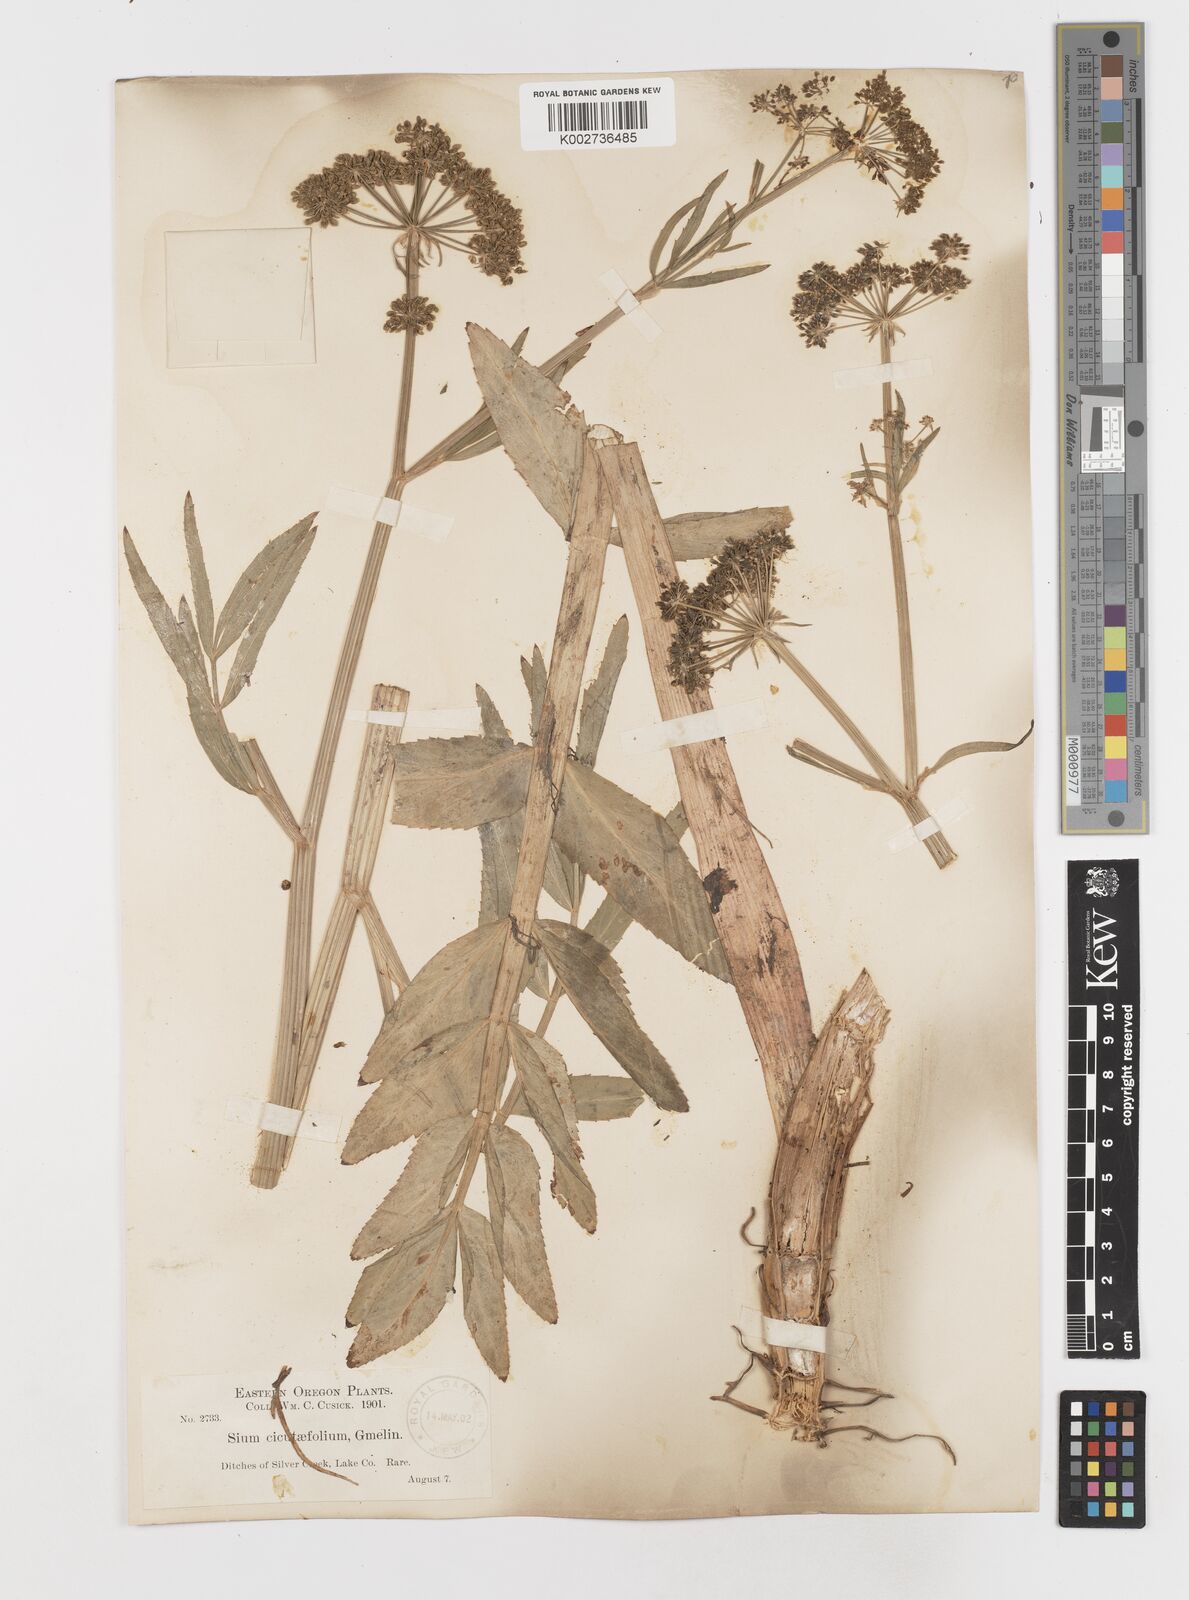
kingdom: Plantae
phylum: Tracheophyta
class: Magnoliopsida
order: Apiales
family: Apiaceae
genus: Sium
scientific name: Sium suave
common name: Hemlock water-parsnip
